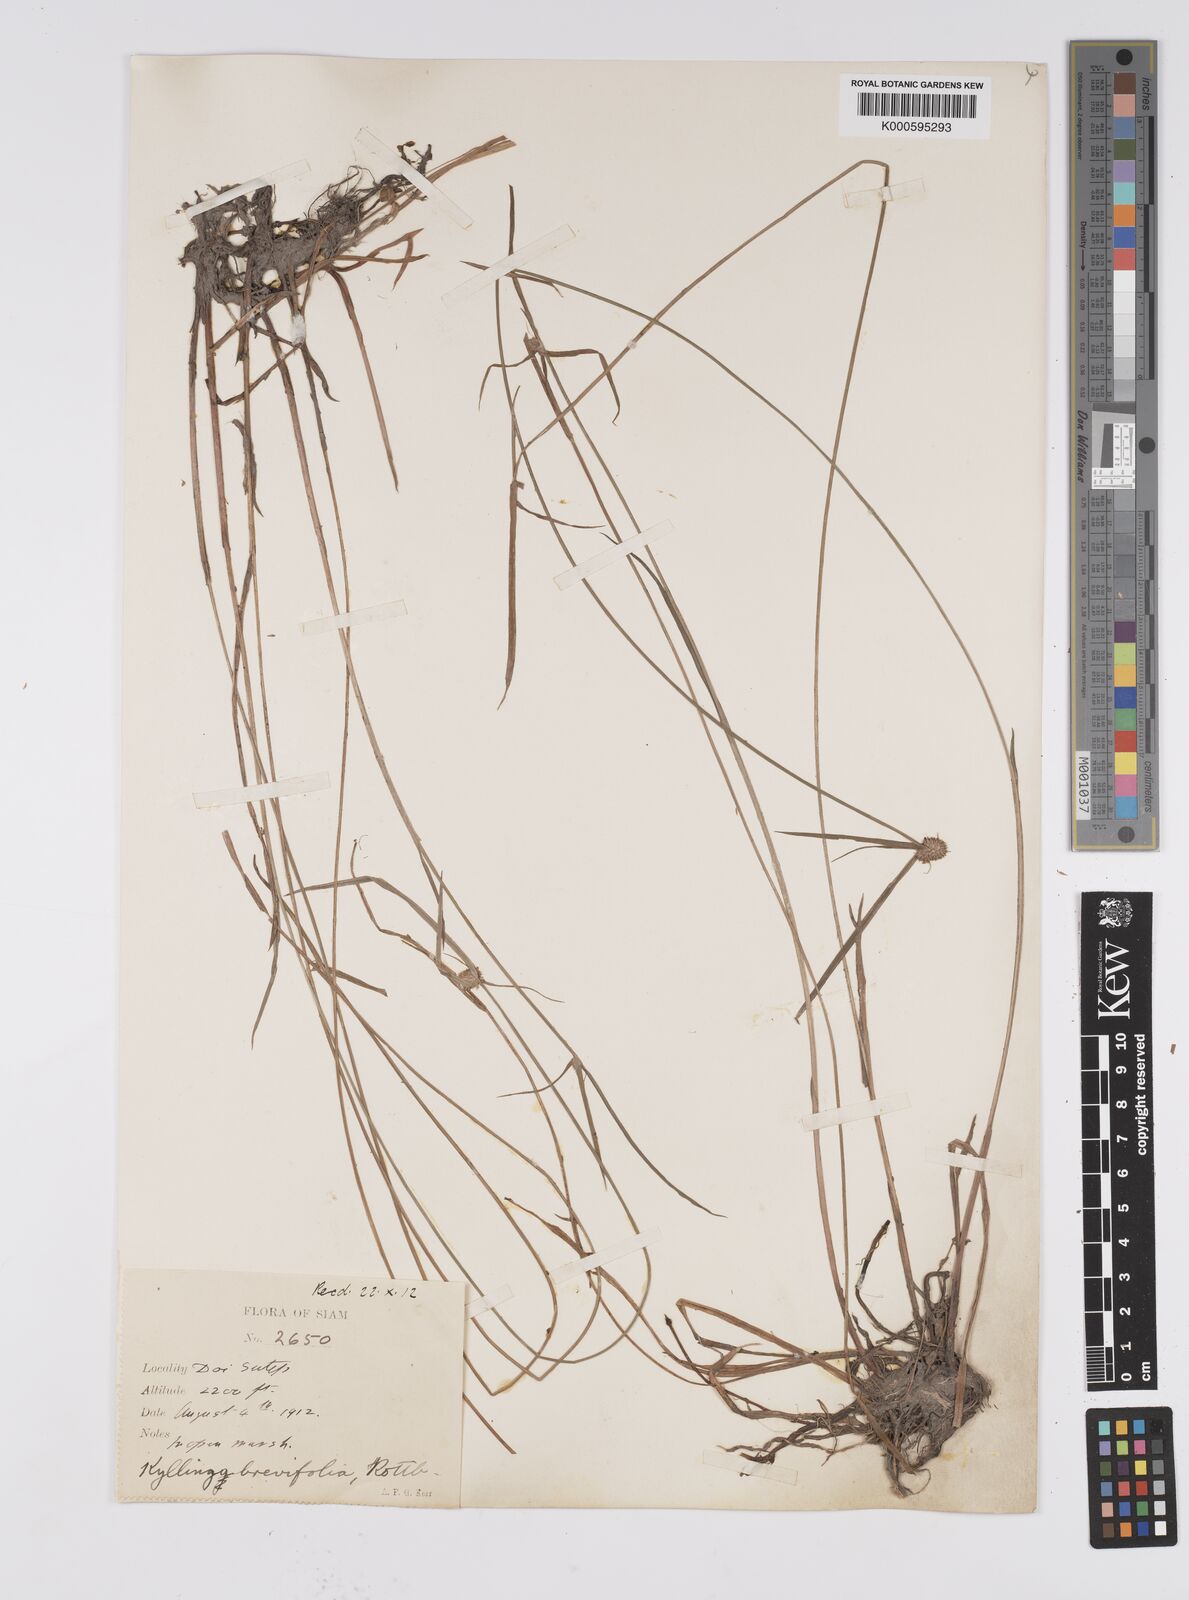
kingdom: Plantae
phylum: Tracheophyta
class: Liliopsida
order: Poales
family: Cyperaceae
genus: Cyperus
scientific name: Cyperus brevifolius
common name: Globe kyllinga
